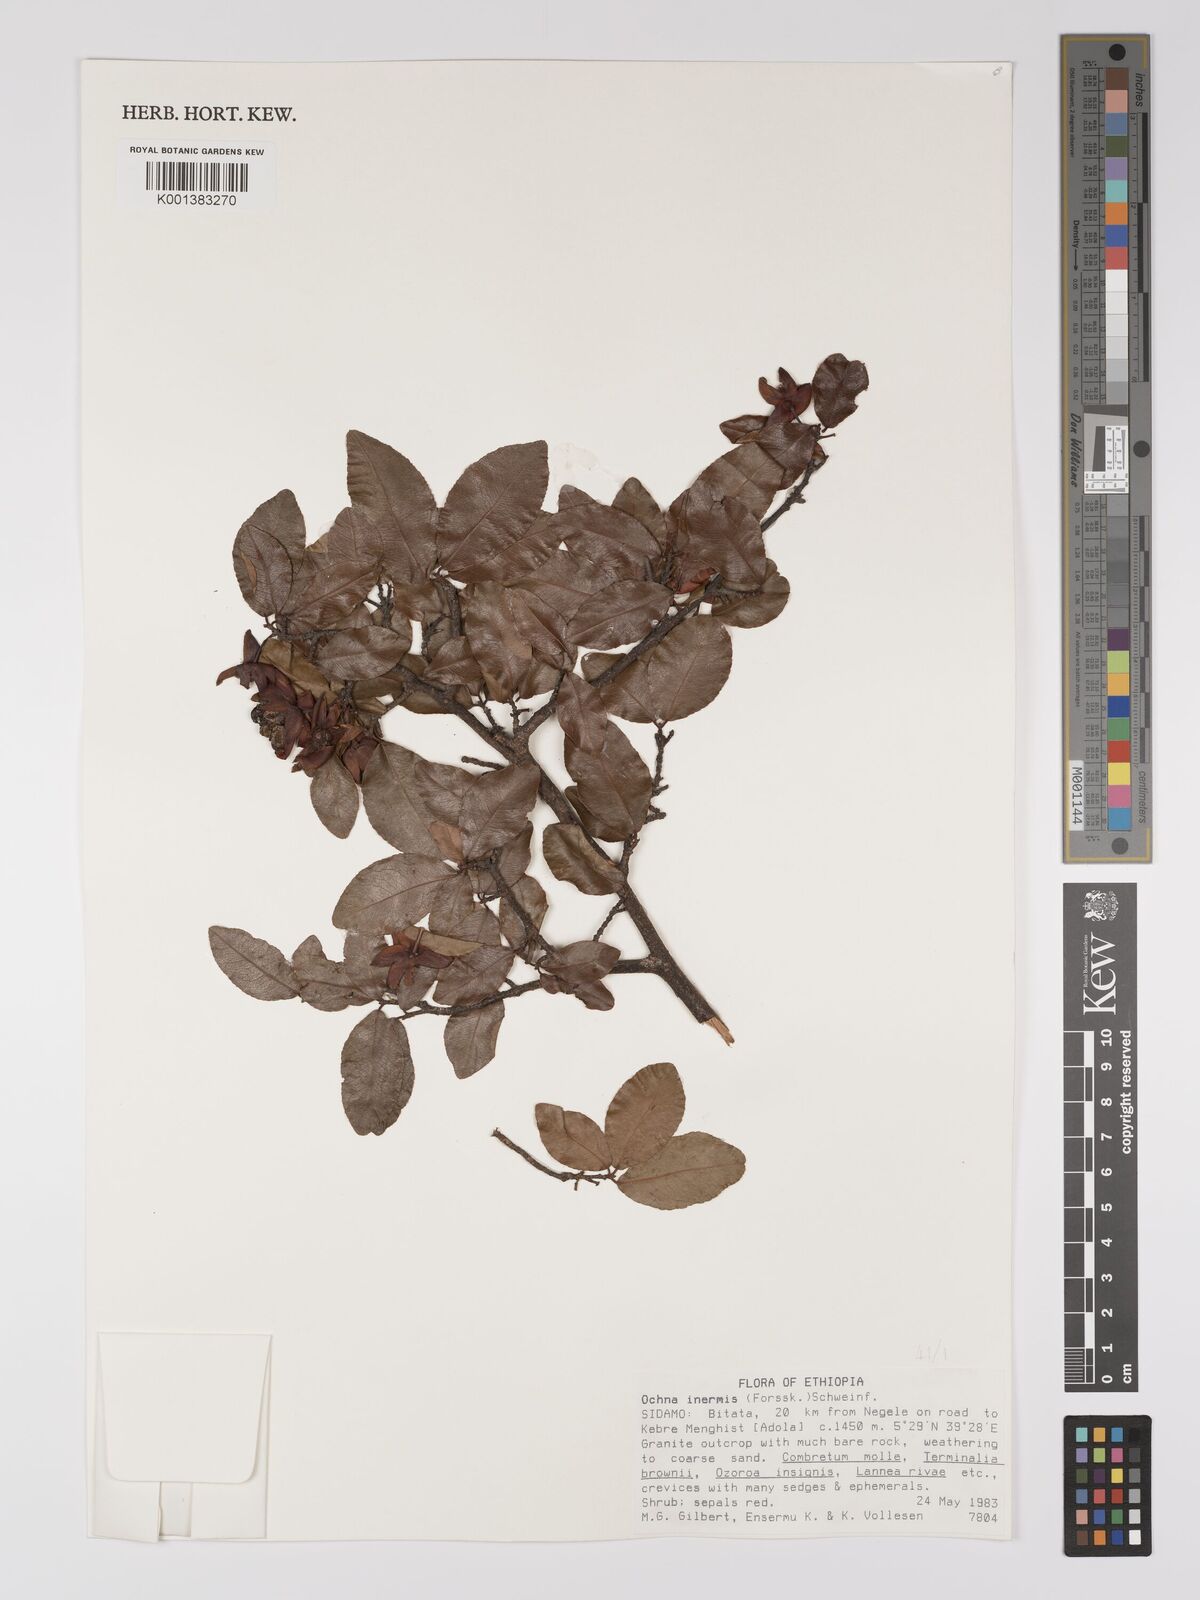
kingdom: Plantae
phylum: Tracheophyta
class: Magnoliopsida
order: Malpighiales
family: Ochnaceae
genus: Ochna
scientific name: Ochna inermis
